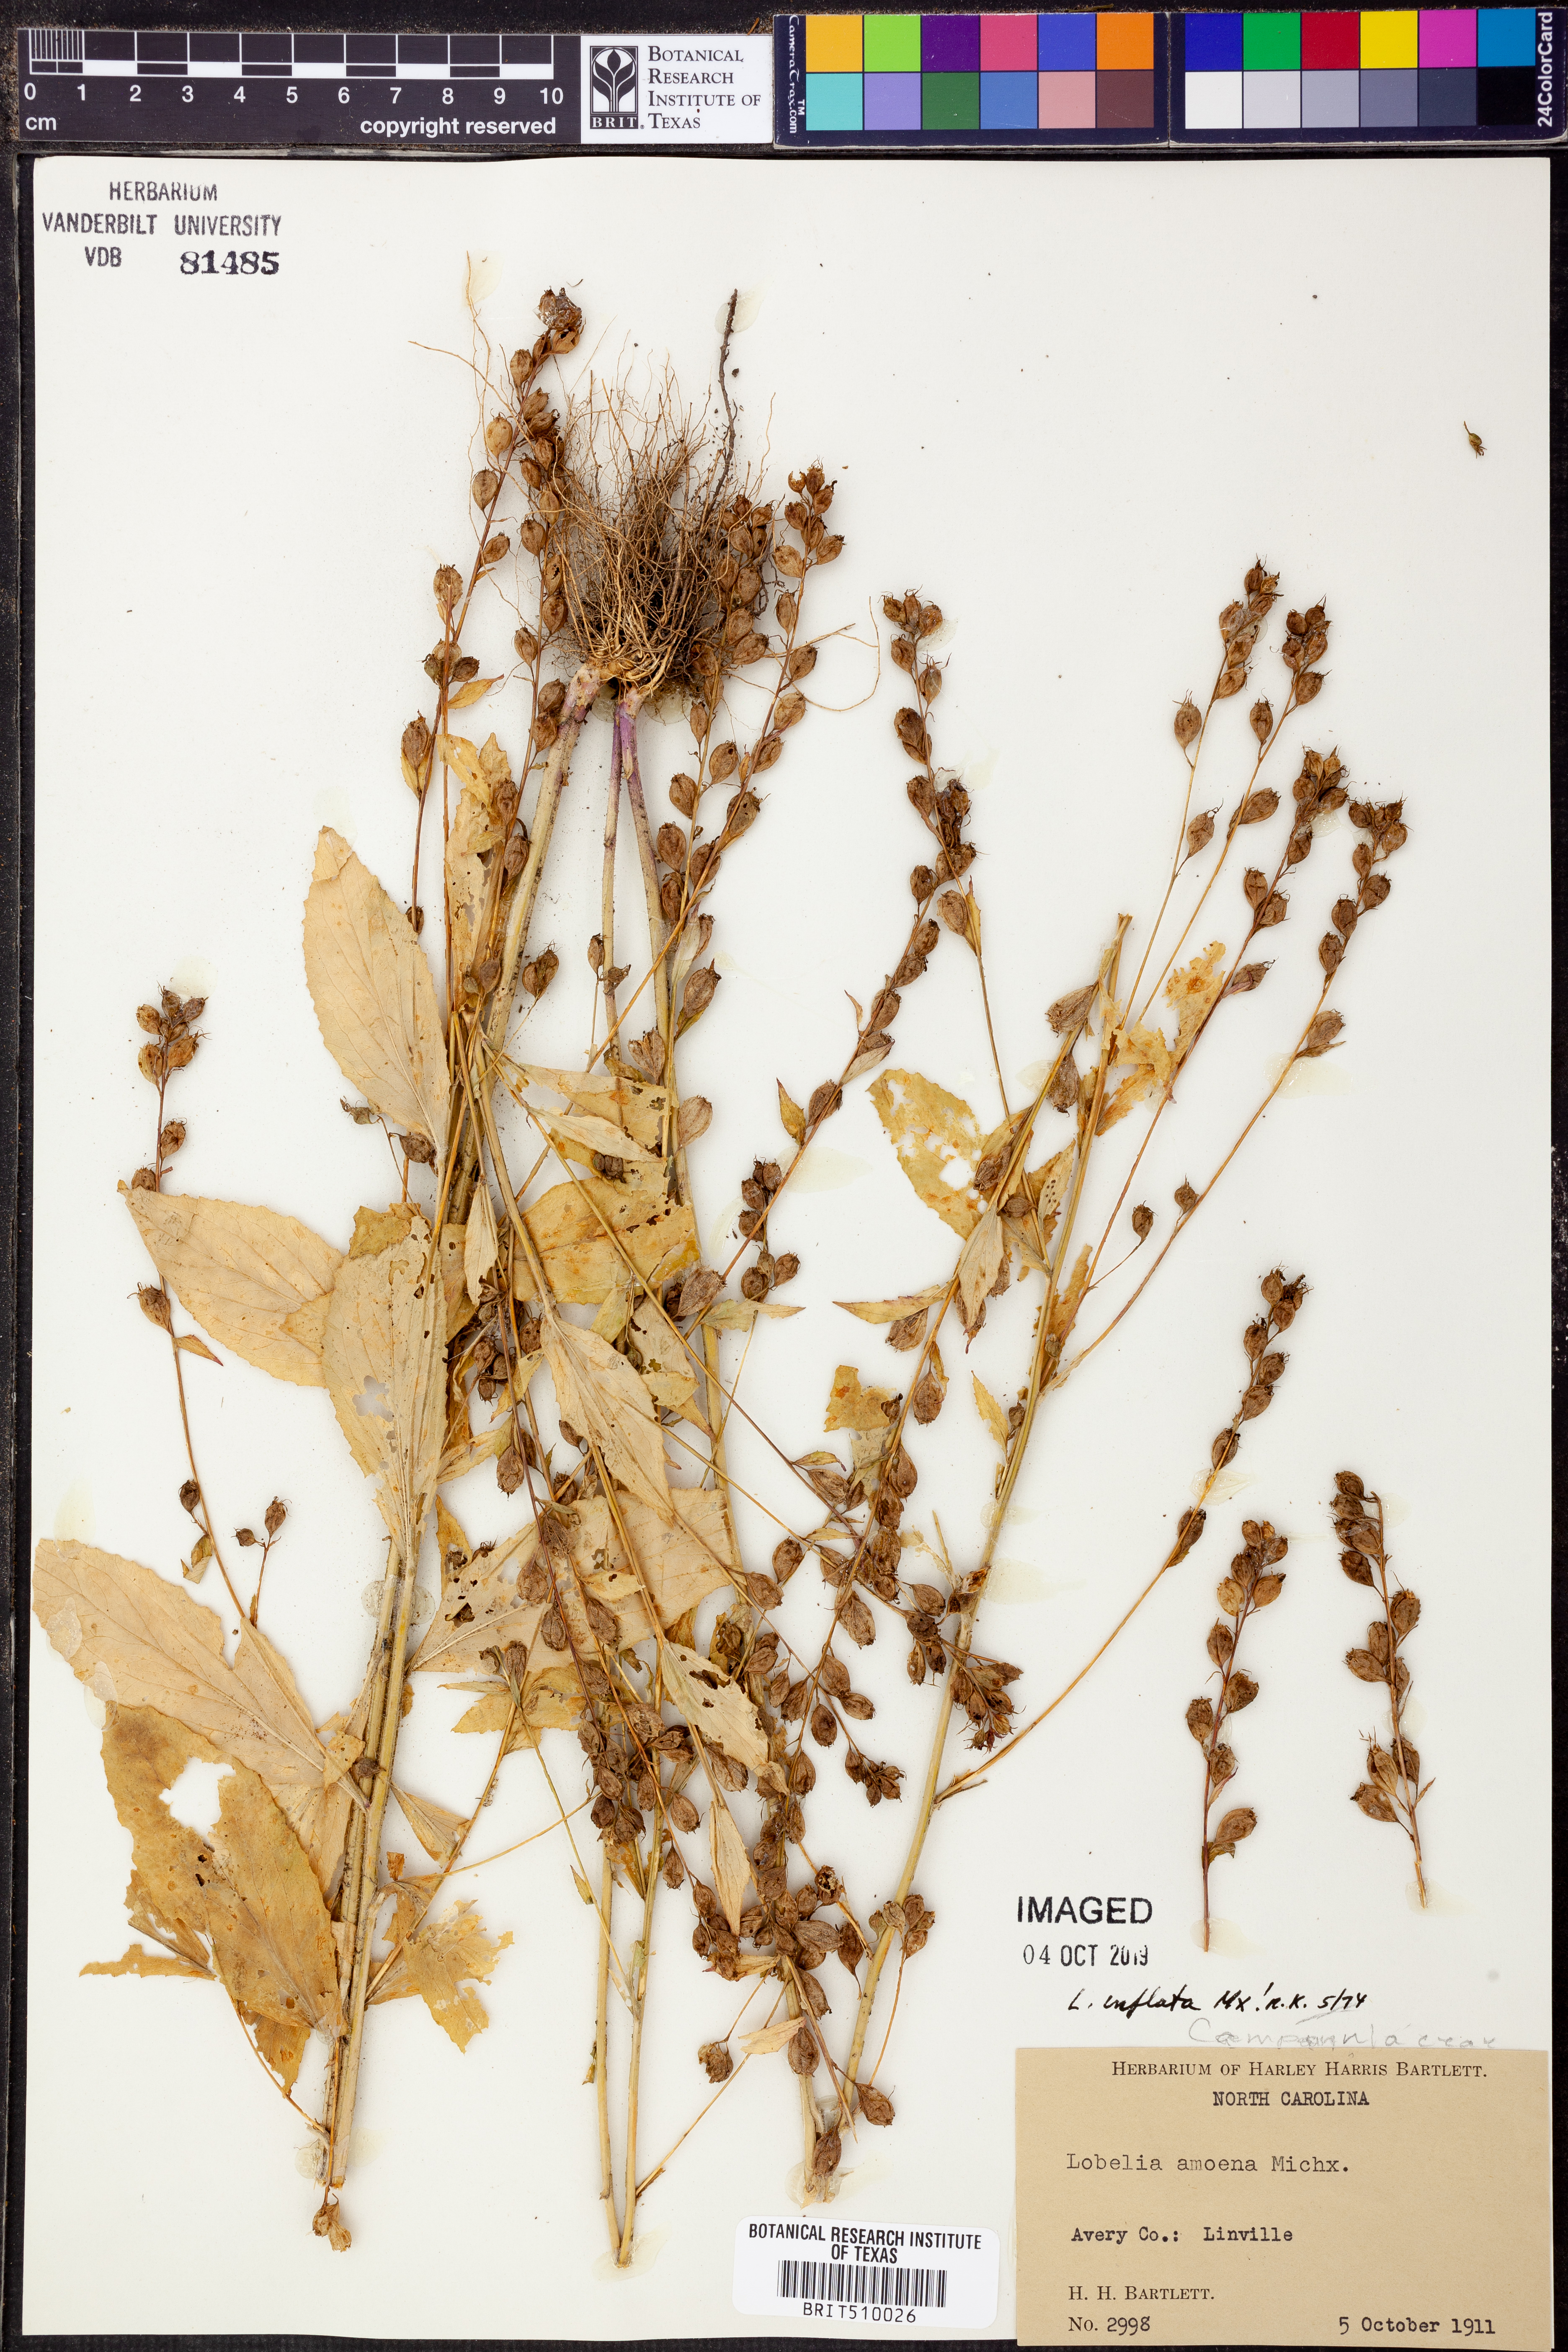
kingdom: Plantae
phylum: Tracheophyta
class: Magnoliopsida
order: Asterales
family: Campanulaceae
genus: Lobelia
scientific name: Lobelia inflata
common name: Indian tobacco
